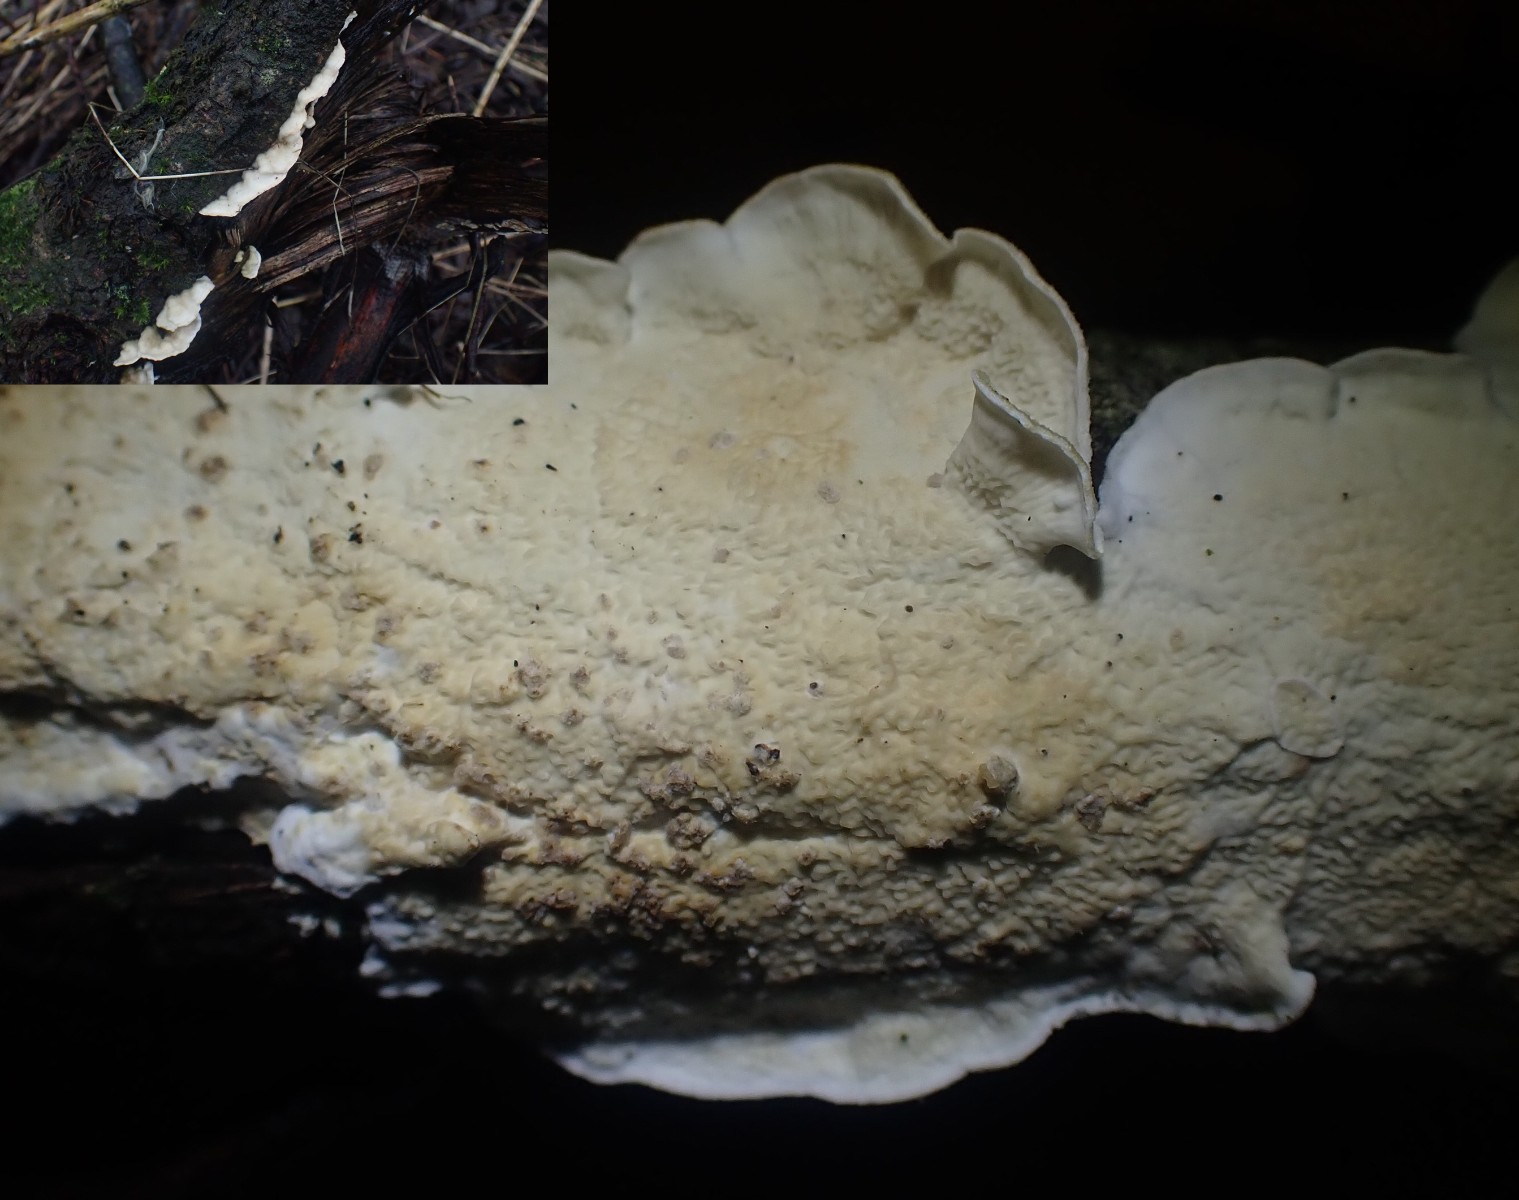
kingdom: Fungi
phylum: Basidiomycota
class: Agaricomycetes
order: Polyporales
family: Irpicaceae
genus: Byssomerulius
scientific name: Byssomerulius corium
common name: læder-åresvamp
